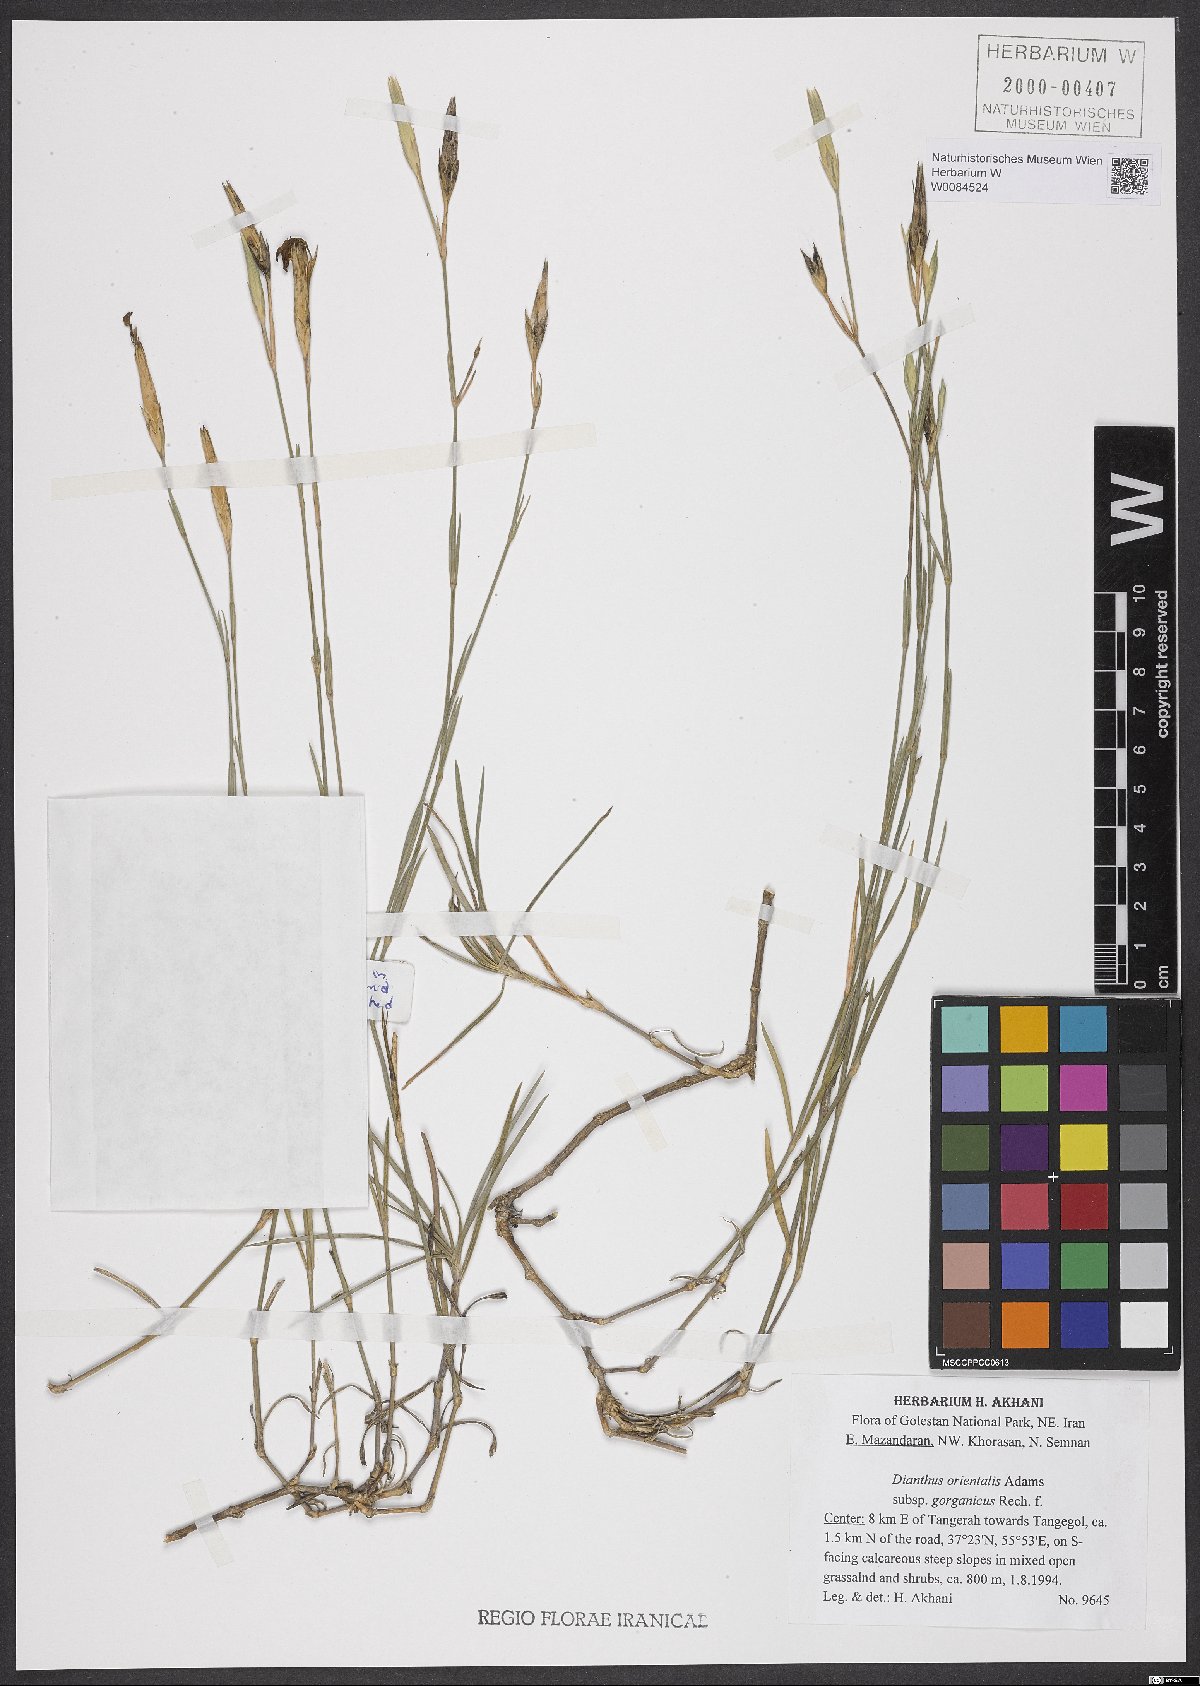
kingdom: Plantae
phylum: Tracheophyta
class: Magnoliopsida
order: Caryophyllales
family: Caryophyllaceae
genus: Dianthus
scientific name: Dianthus orientalis
